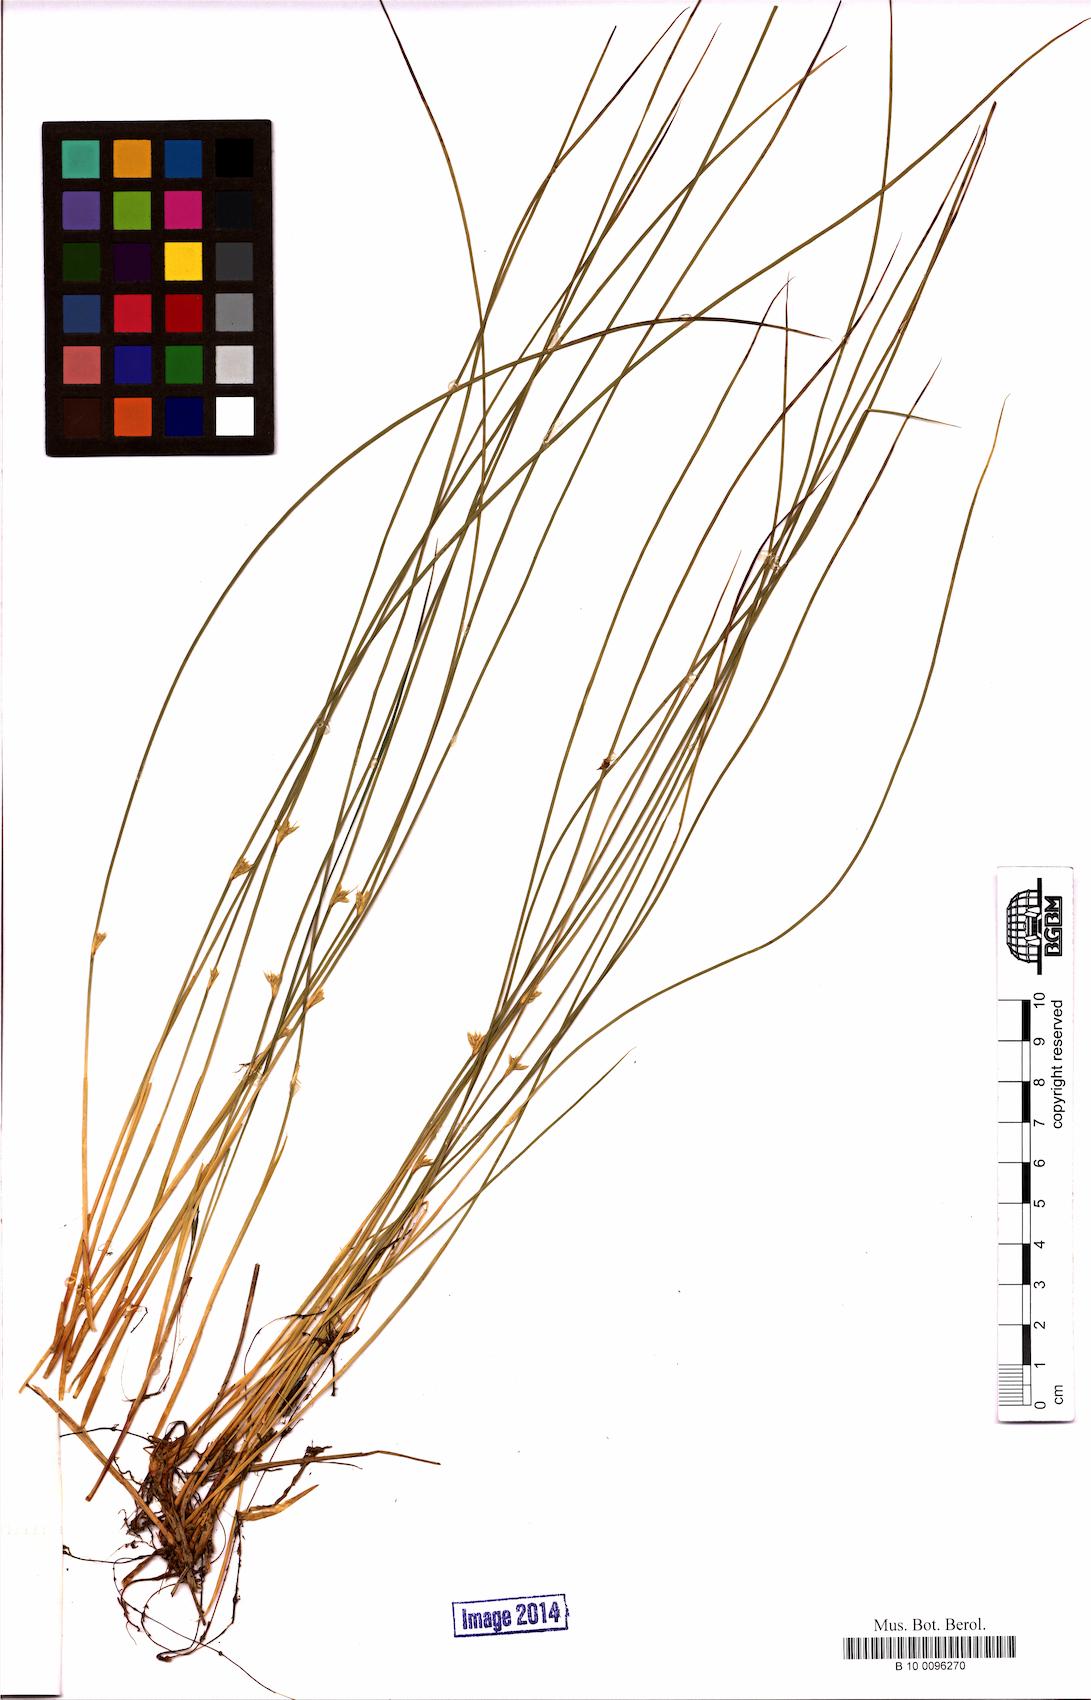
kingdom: Plantae
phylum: Tracheophyta
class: Liliopsida
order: Poales
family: Juncaceae
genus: Juncus
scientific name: Juncus filiformis
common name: Thread rush
